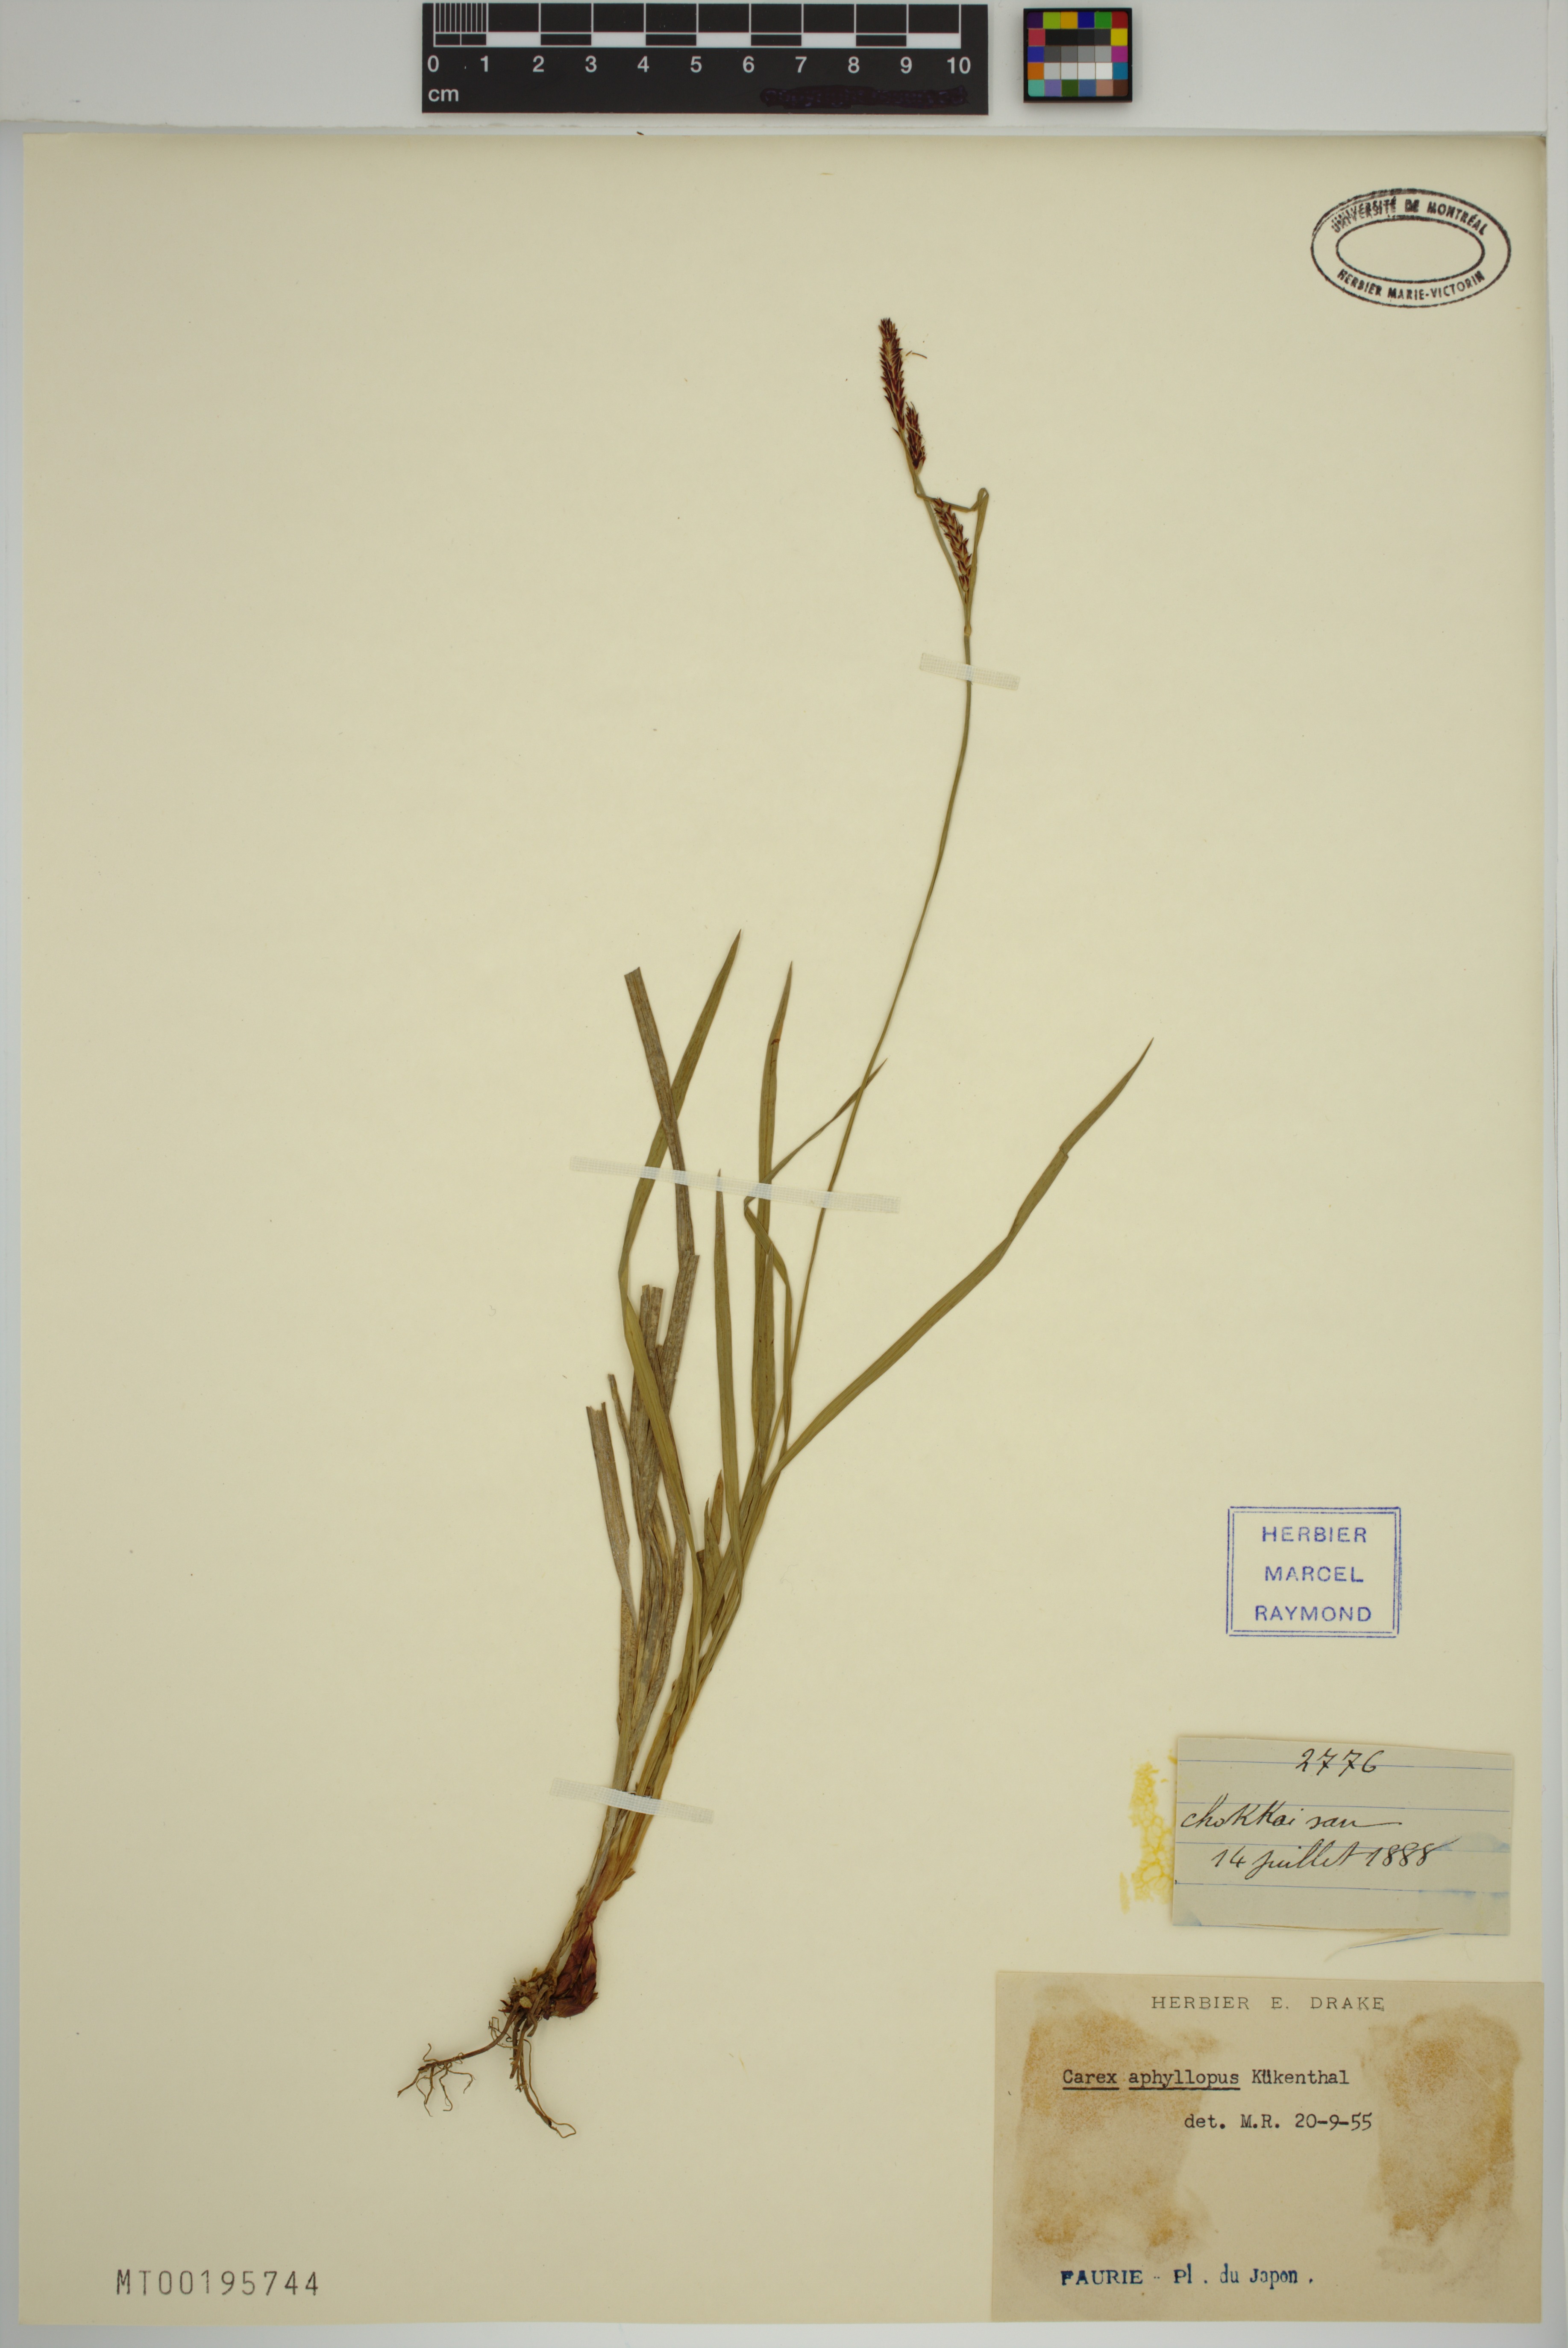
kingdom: Plantae
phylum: Tracheophyta
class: Liliopsida
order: Poales
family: Cyperaceae
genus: Carex
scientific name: Carex aphyllopus
